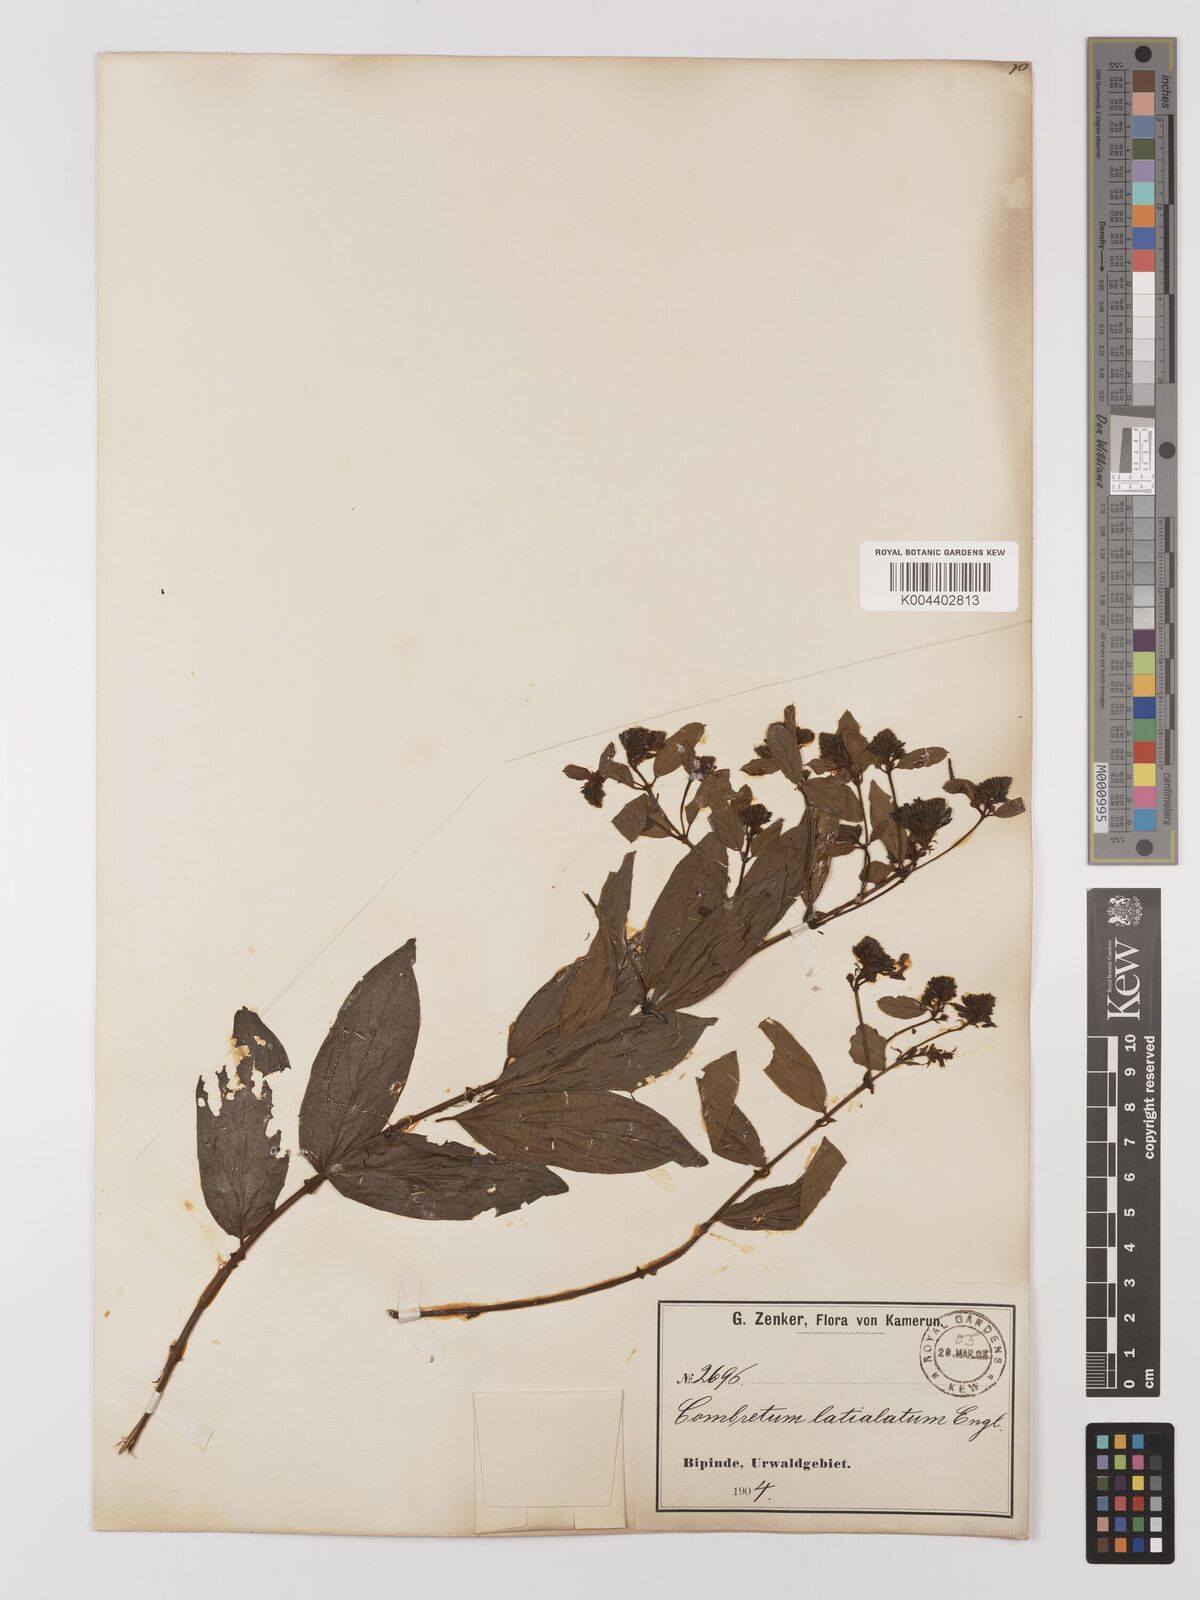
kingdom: Plantae
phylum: Tracheophyta
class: Magnoliopsida
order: Myrtales
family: Combretaceae
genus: Combretum
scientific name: Combretum latialatum
